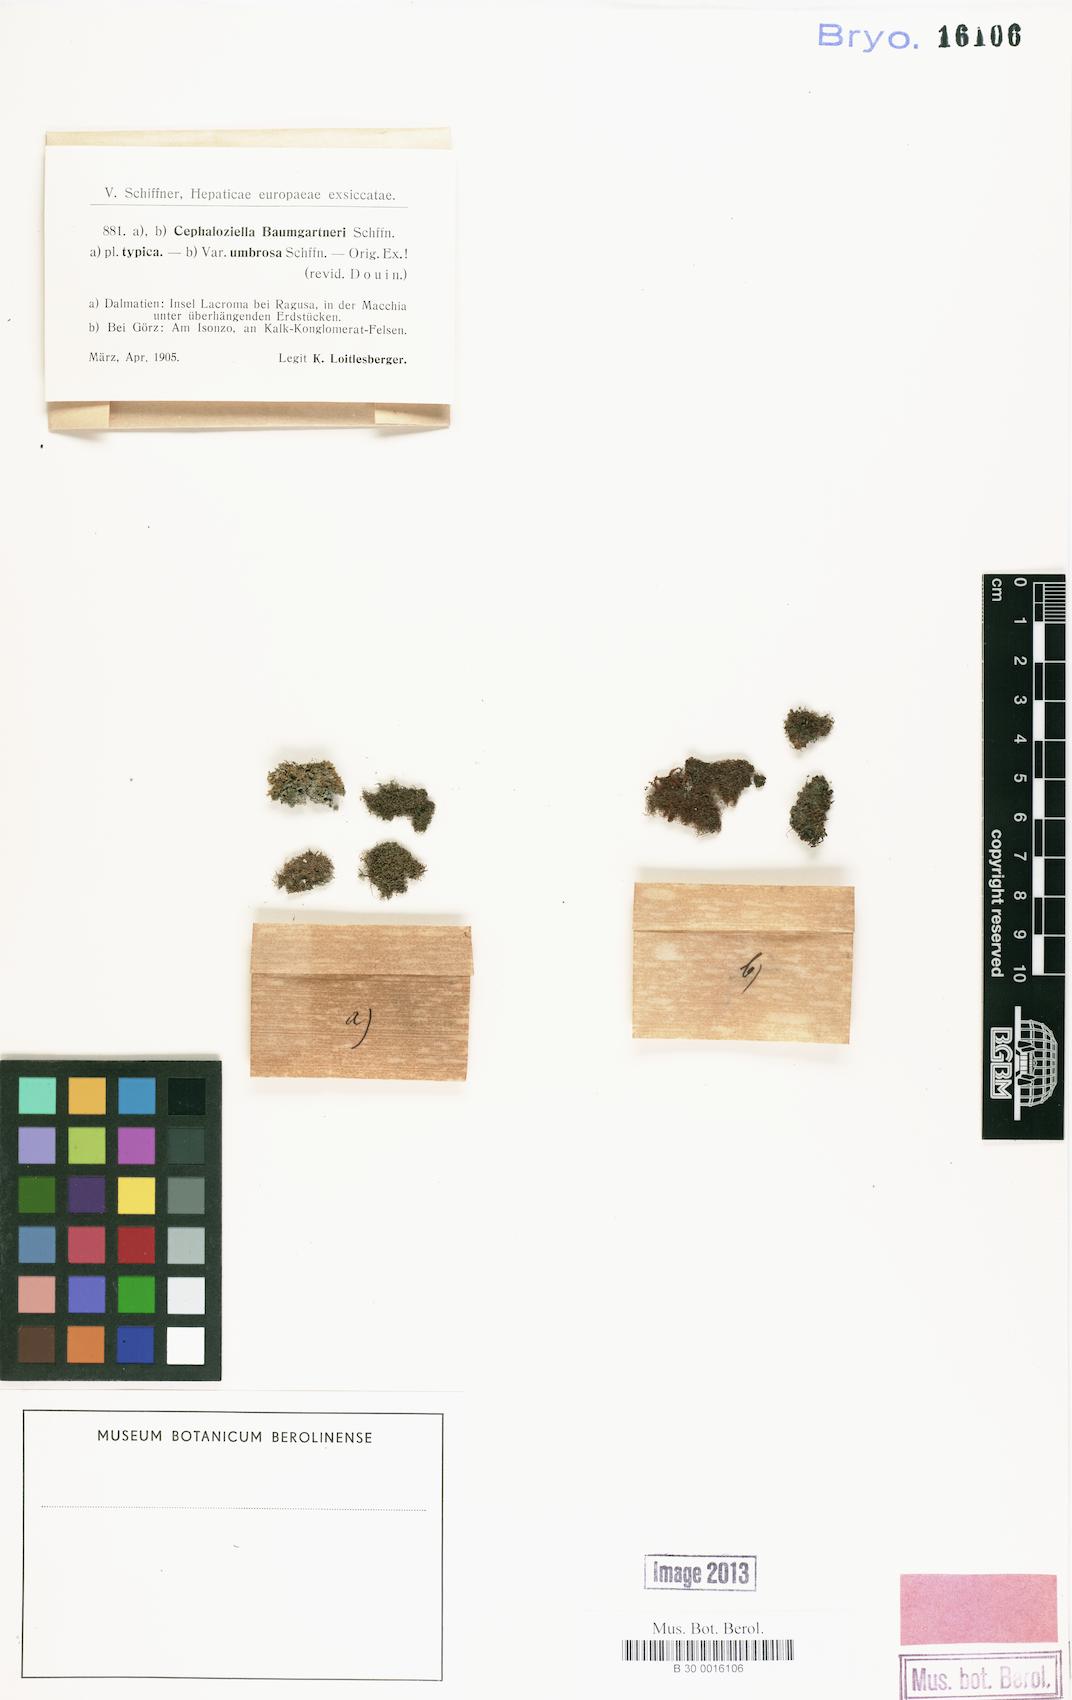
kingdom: Plantae
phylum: Marchantiophyta
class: Jungermanniopsida
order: Jungermanniales
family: Cephaloziellaceae
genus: Cephaloziella
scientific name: Cephaloziella baumgartneri
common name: Chalk threadwort
